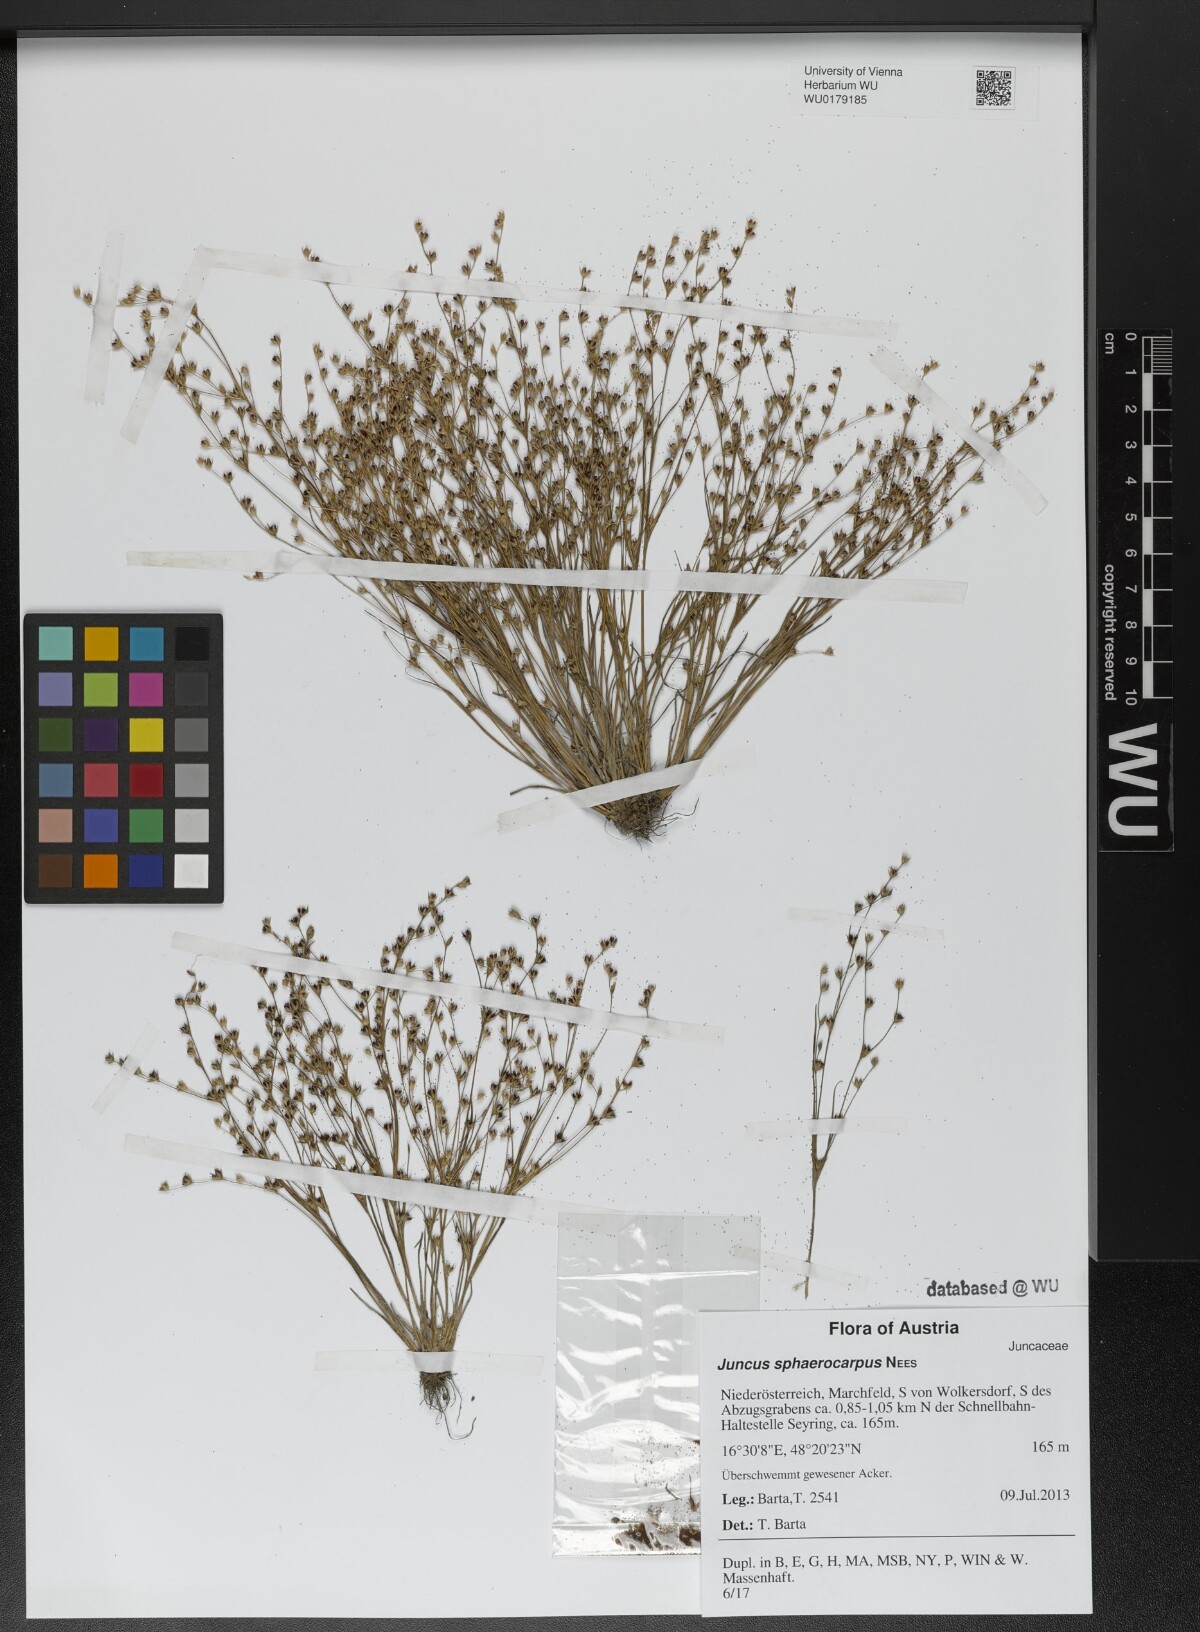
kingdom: Plantae
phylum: Tracheophyta
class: Liliopsida
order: Poales
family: Juncaceae
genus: Juncus
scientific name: Juncus sphaerocarpus
